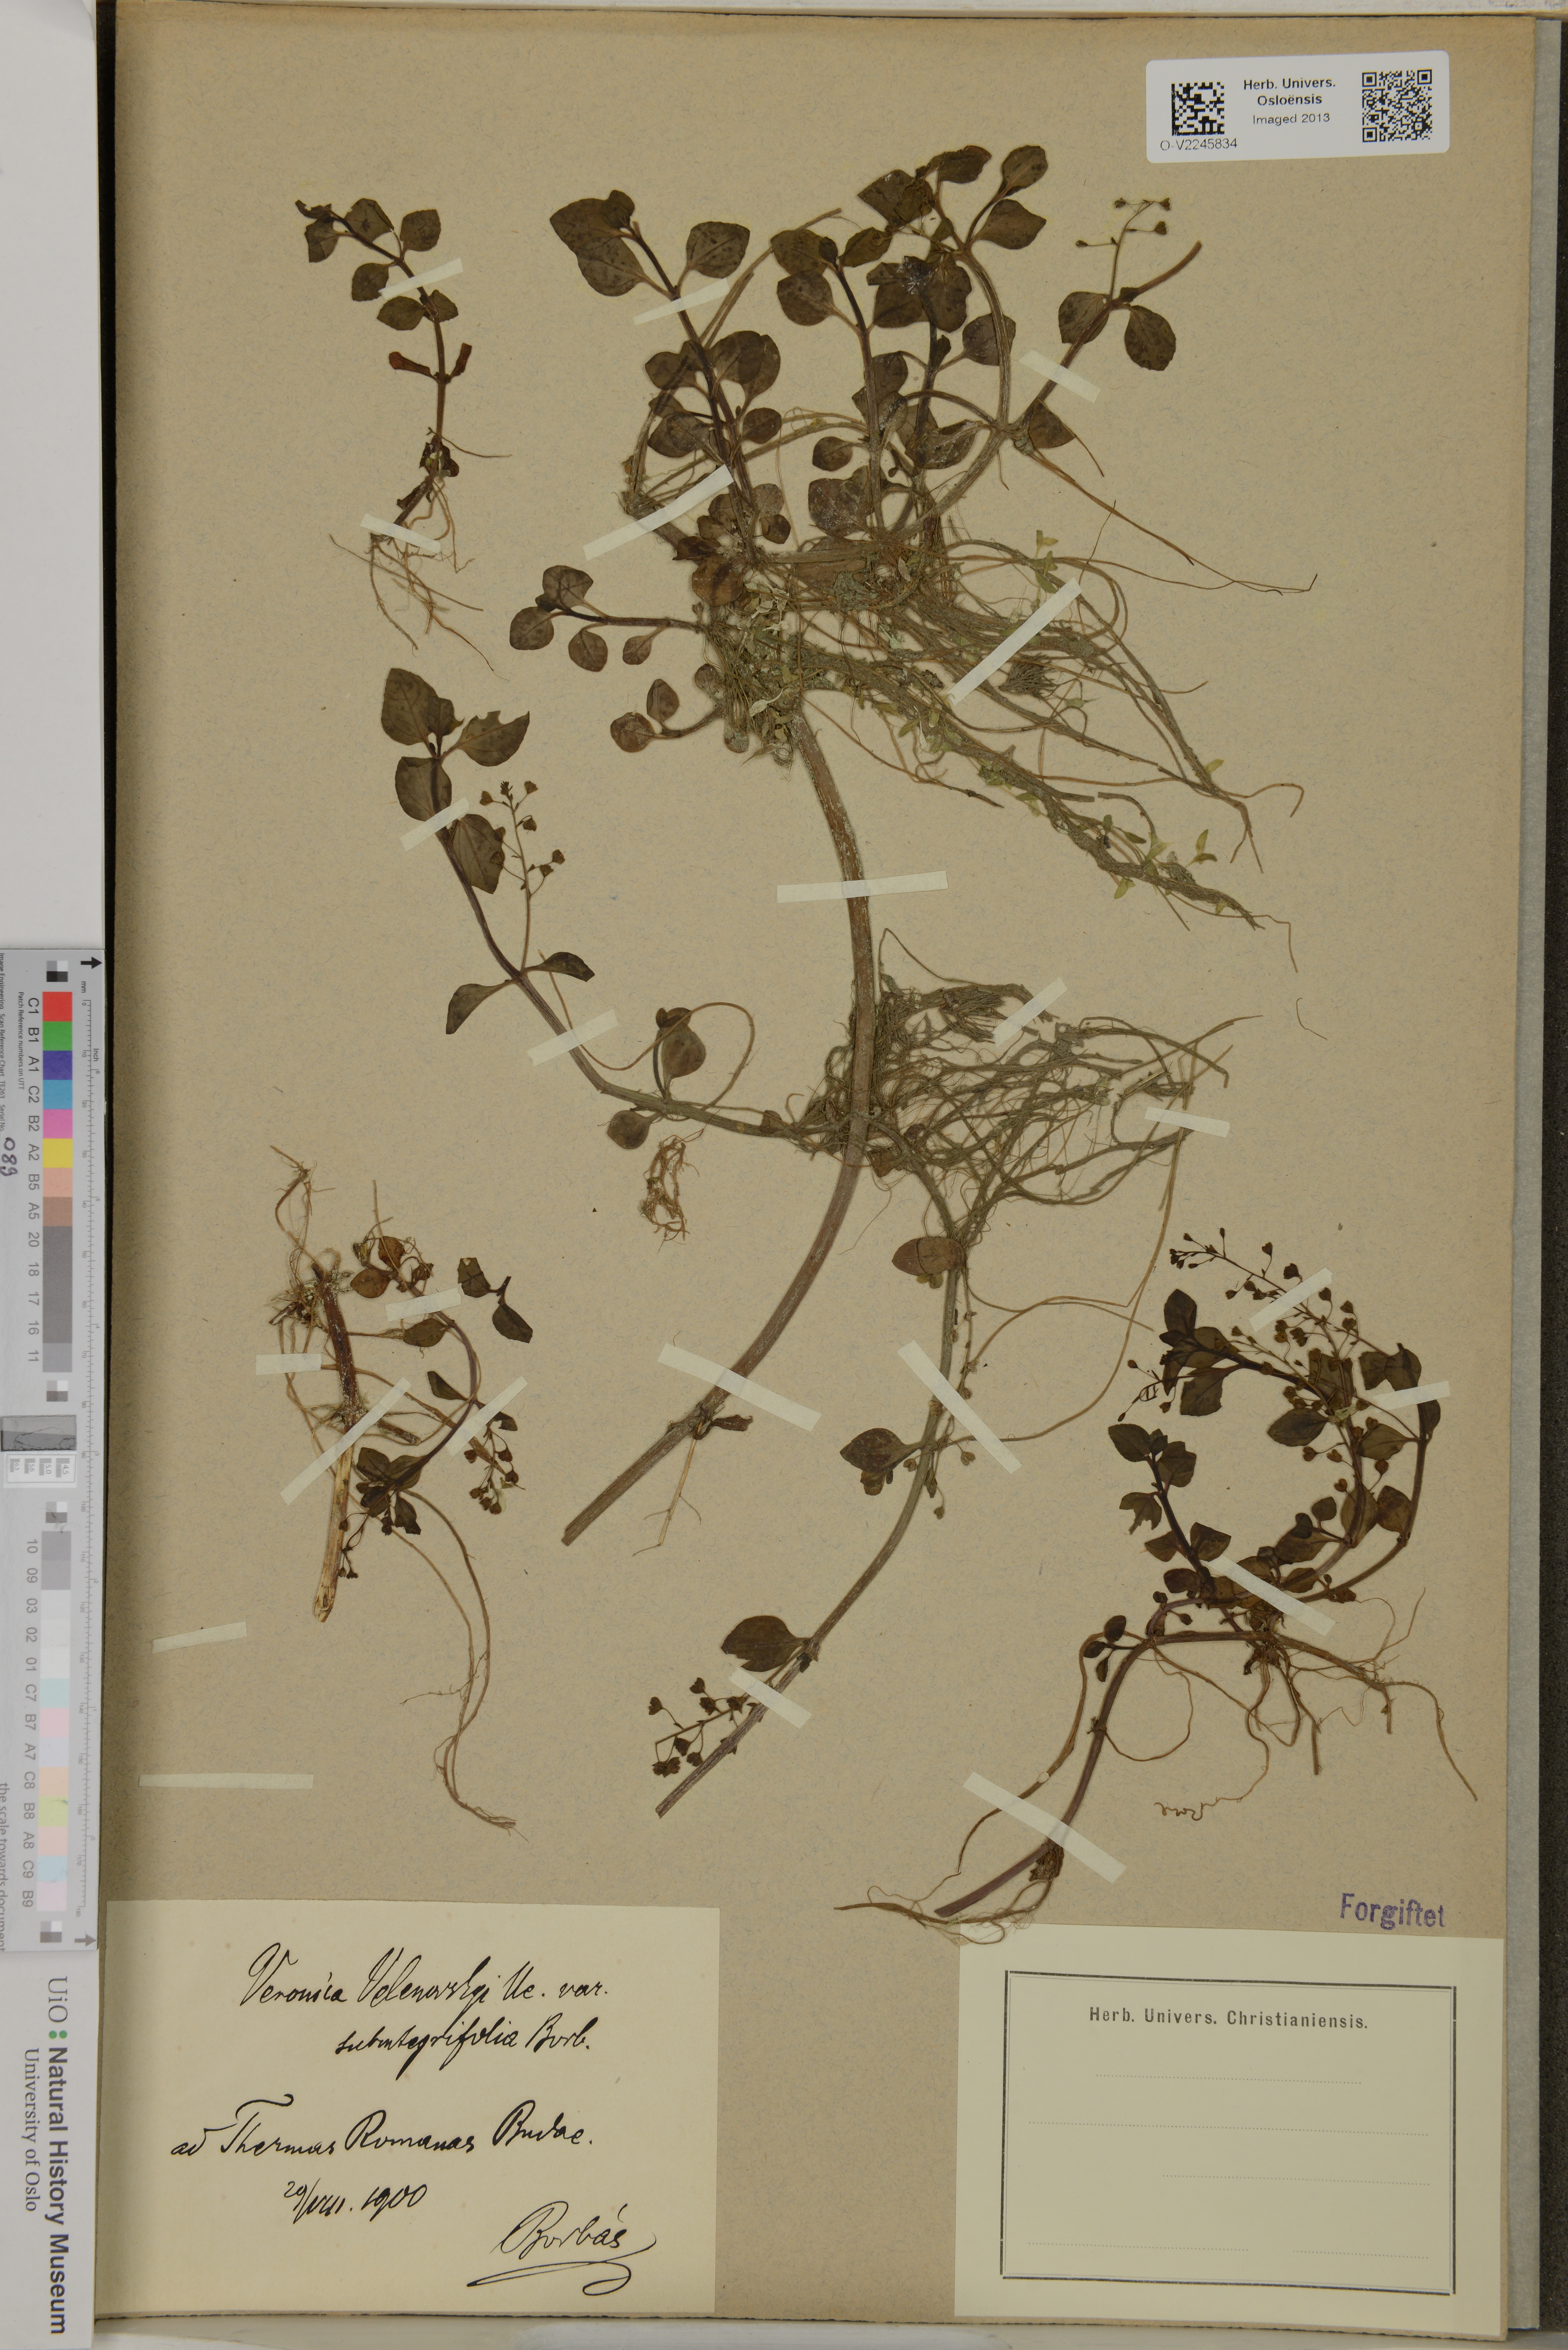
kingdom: Plantae
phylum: Tracheophyta
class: Magnoliopsida
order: Lamiales
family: Plantaginaceae
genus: Veronica
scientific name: Veronica scardica
